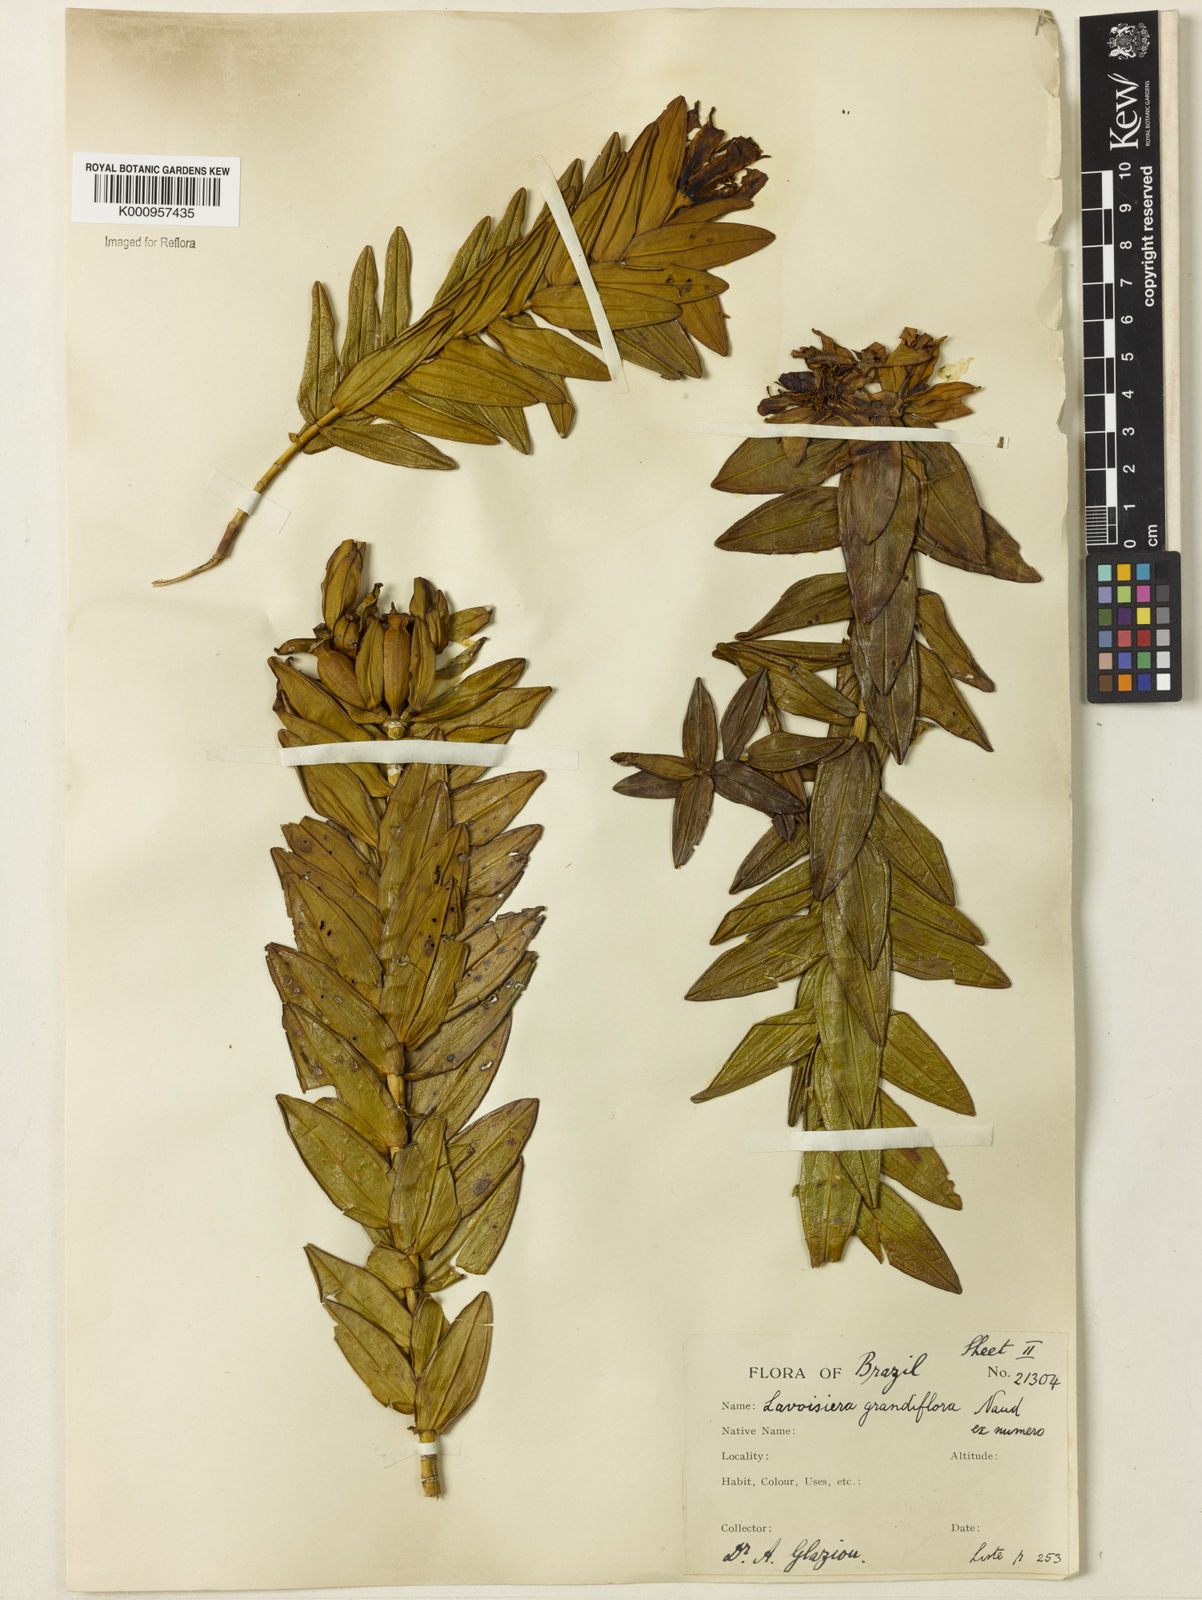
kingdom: Plantae
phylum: Tracheophyta
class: Magnoliopsida
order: Myrtales
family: Melastomataceae
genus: Microlicia
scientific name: Microlicia macrantha
